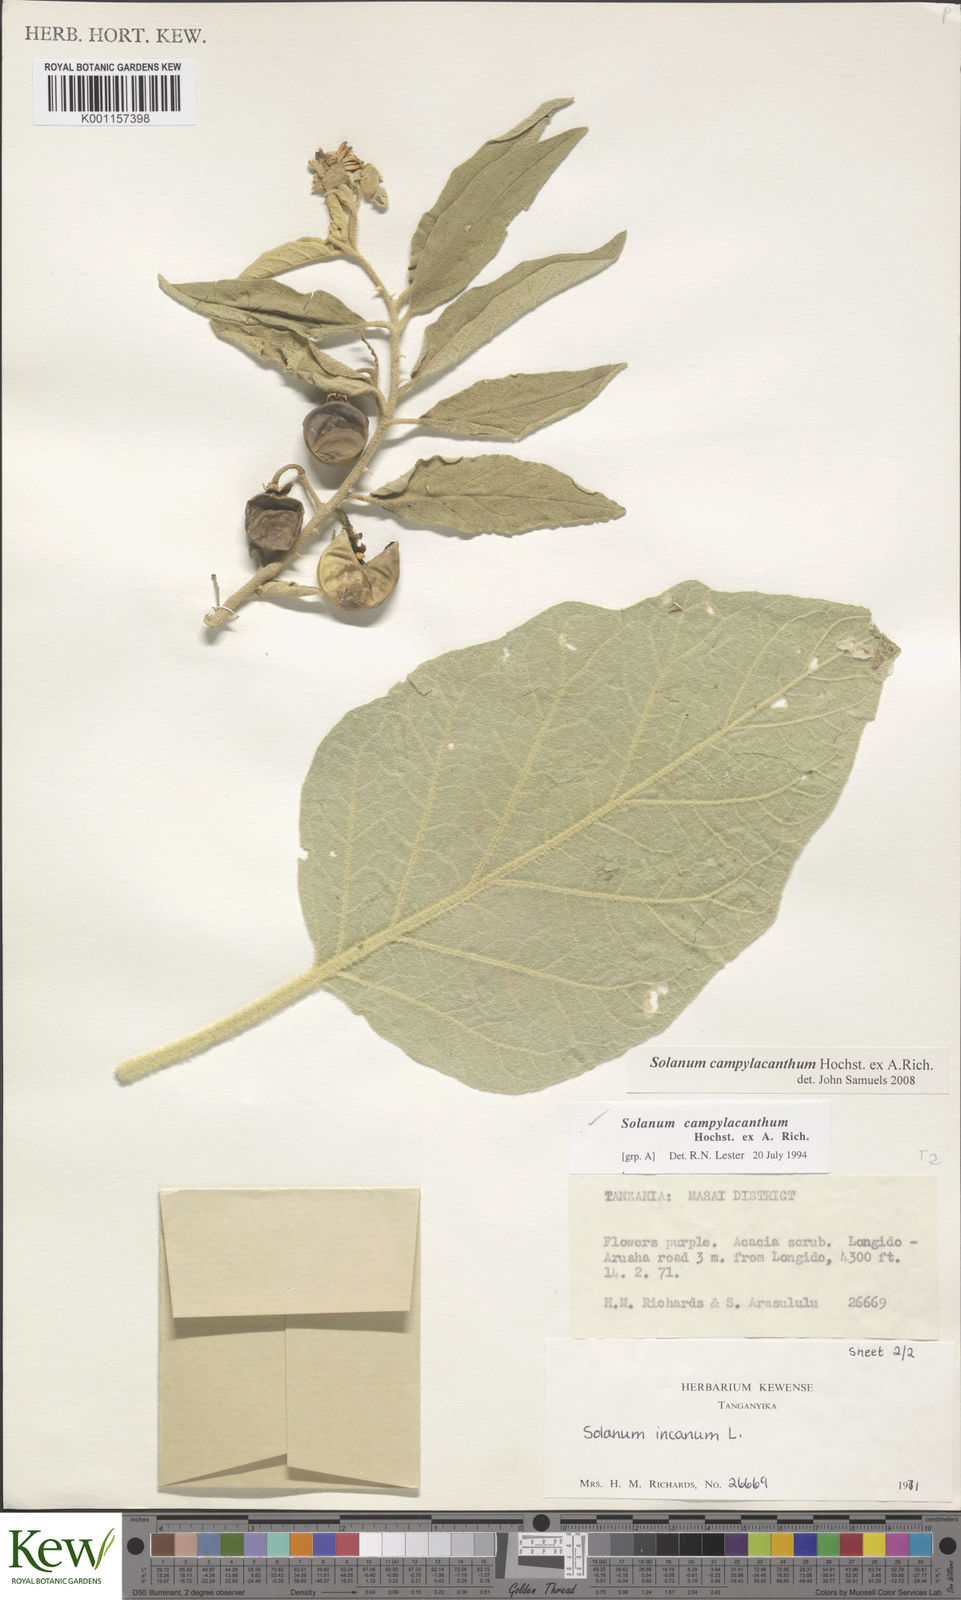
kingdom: Plantae
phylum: Tracheophyta
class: Magnoliopsida
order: Solanales
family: Solanaceae
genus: Solanum
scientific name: Solanum campylacanthum
